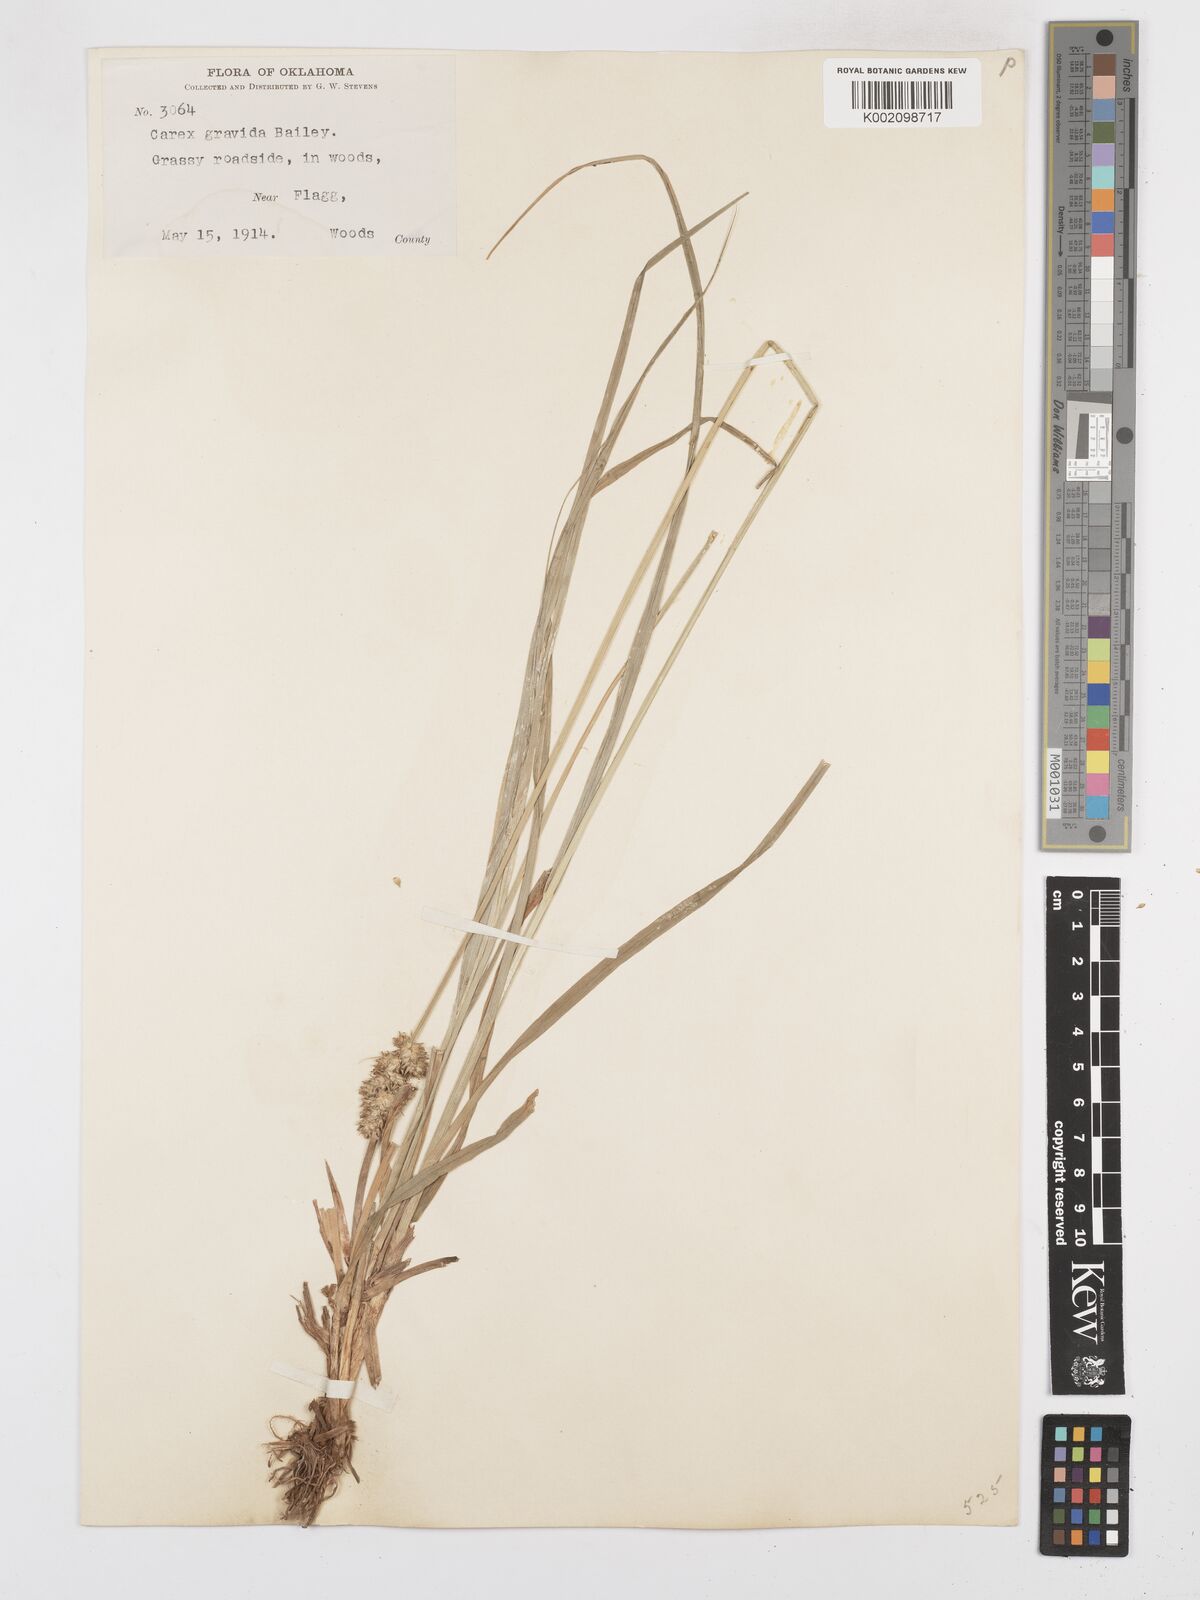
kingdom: Plantae
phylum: Tracheophyta
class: Liliopsida
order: Poales
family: Cyperaceae
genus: Carex
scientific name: Carex gravida
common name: Heavy sedge
